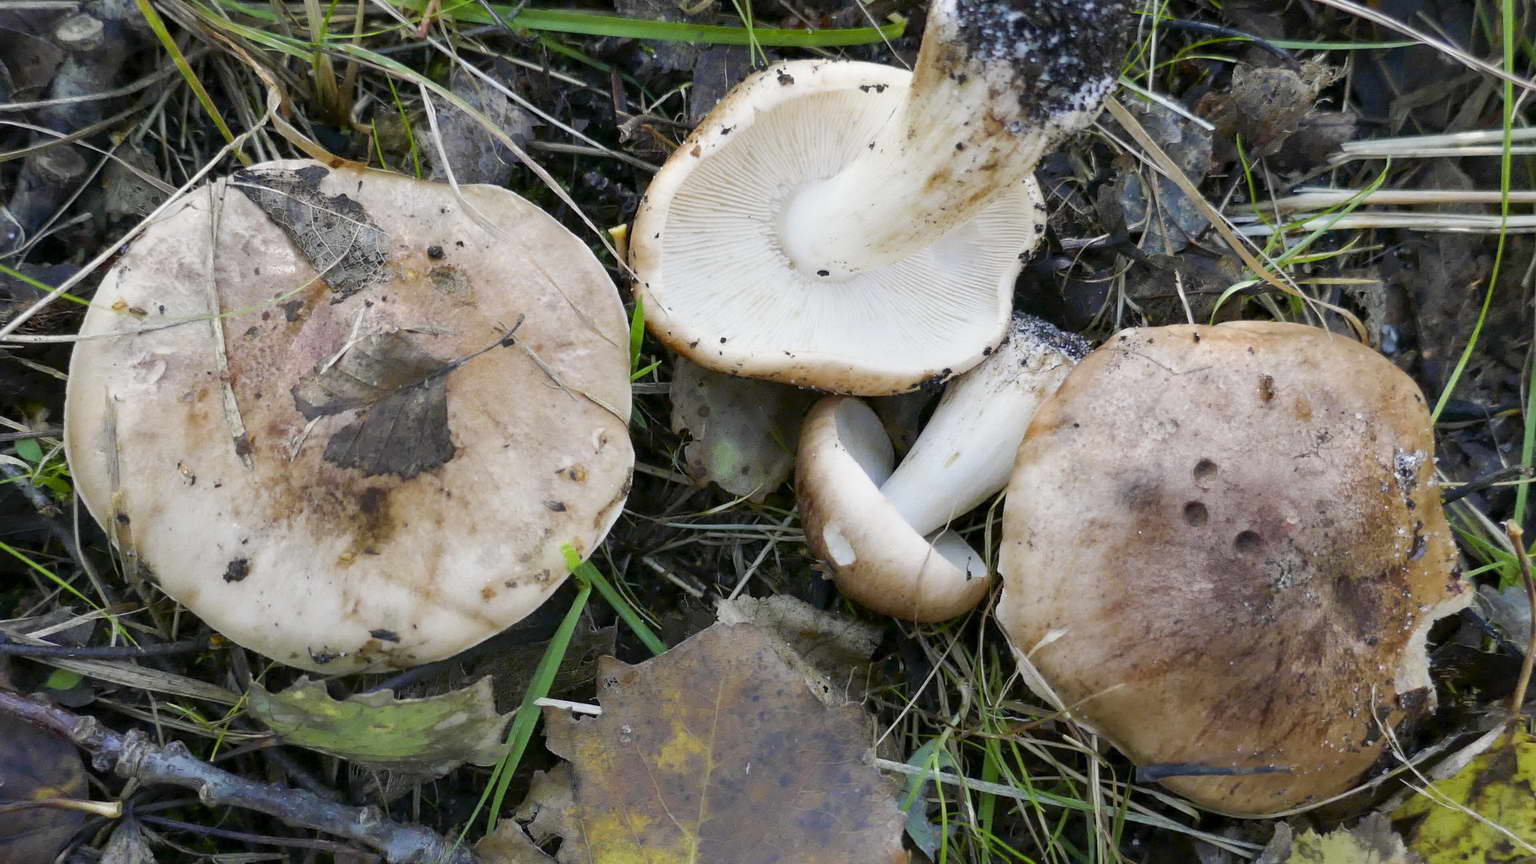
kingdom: Fungi
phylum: Basidiomycota
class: Agaricomycetes
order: Agaricales
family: Tricholomataceae
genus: Tricholoma
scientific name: Tricholoma populinum
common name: poppel-ridderhat
